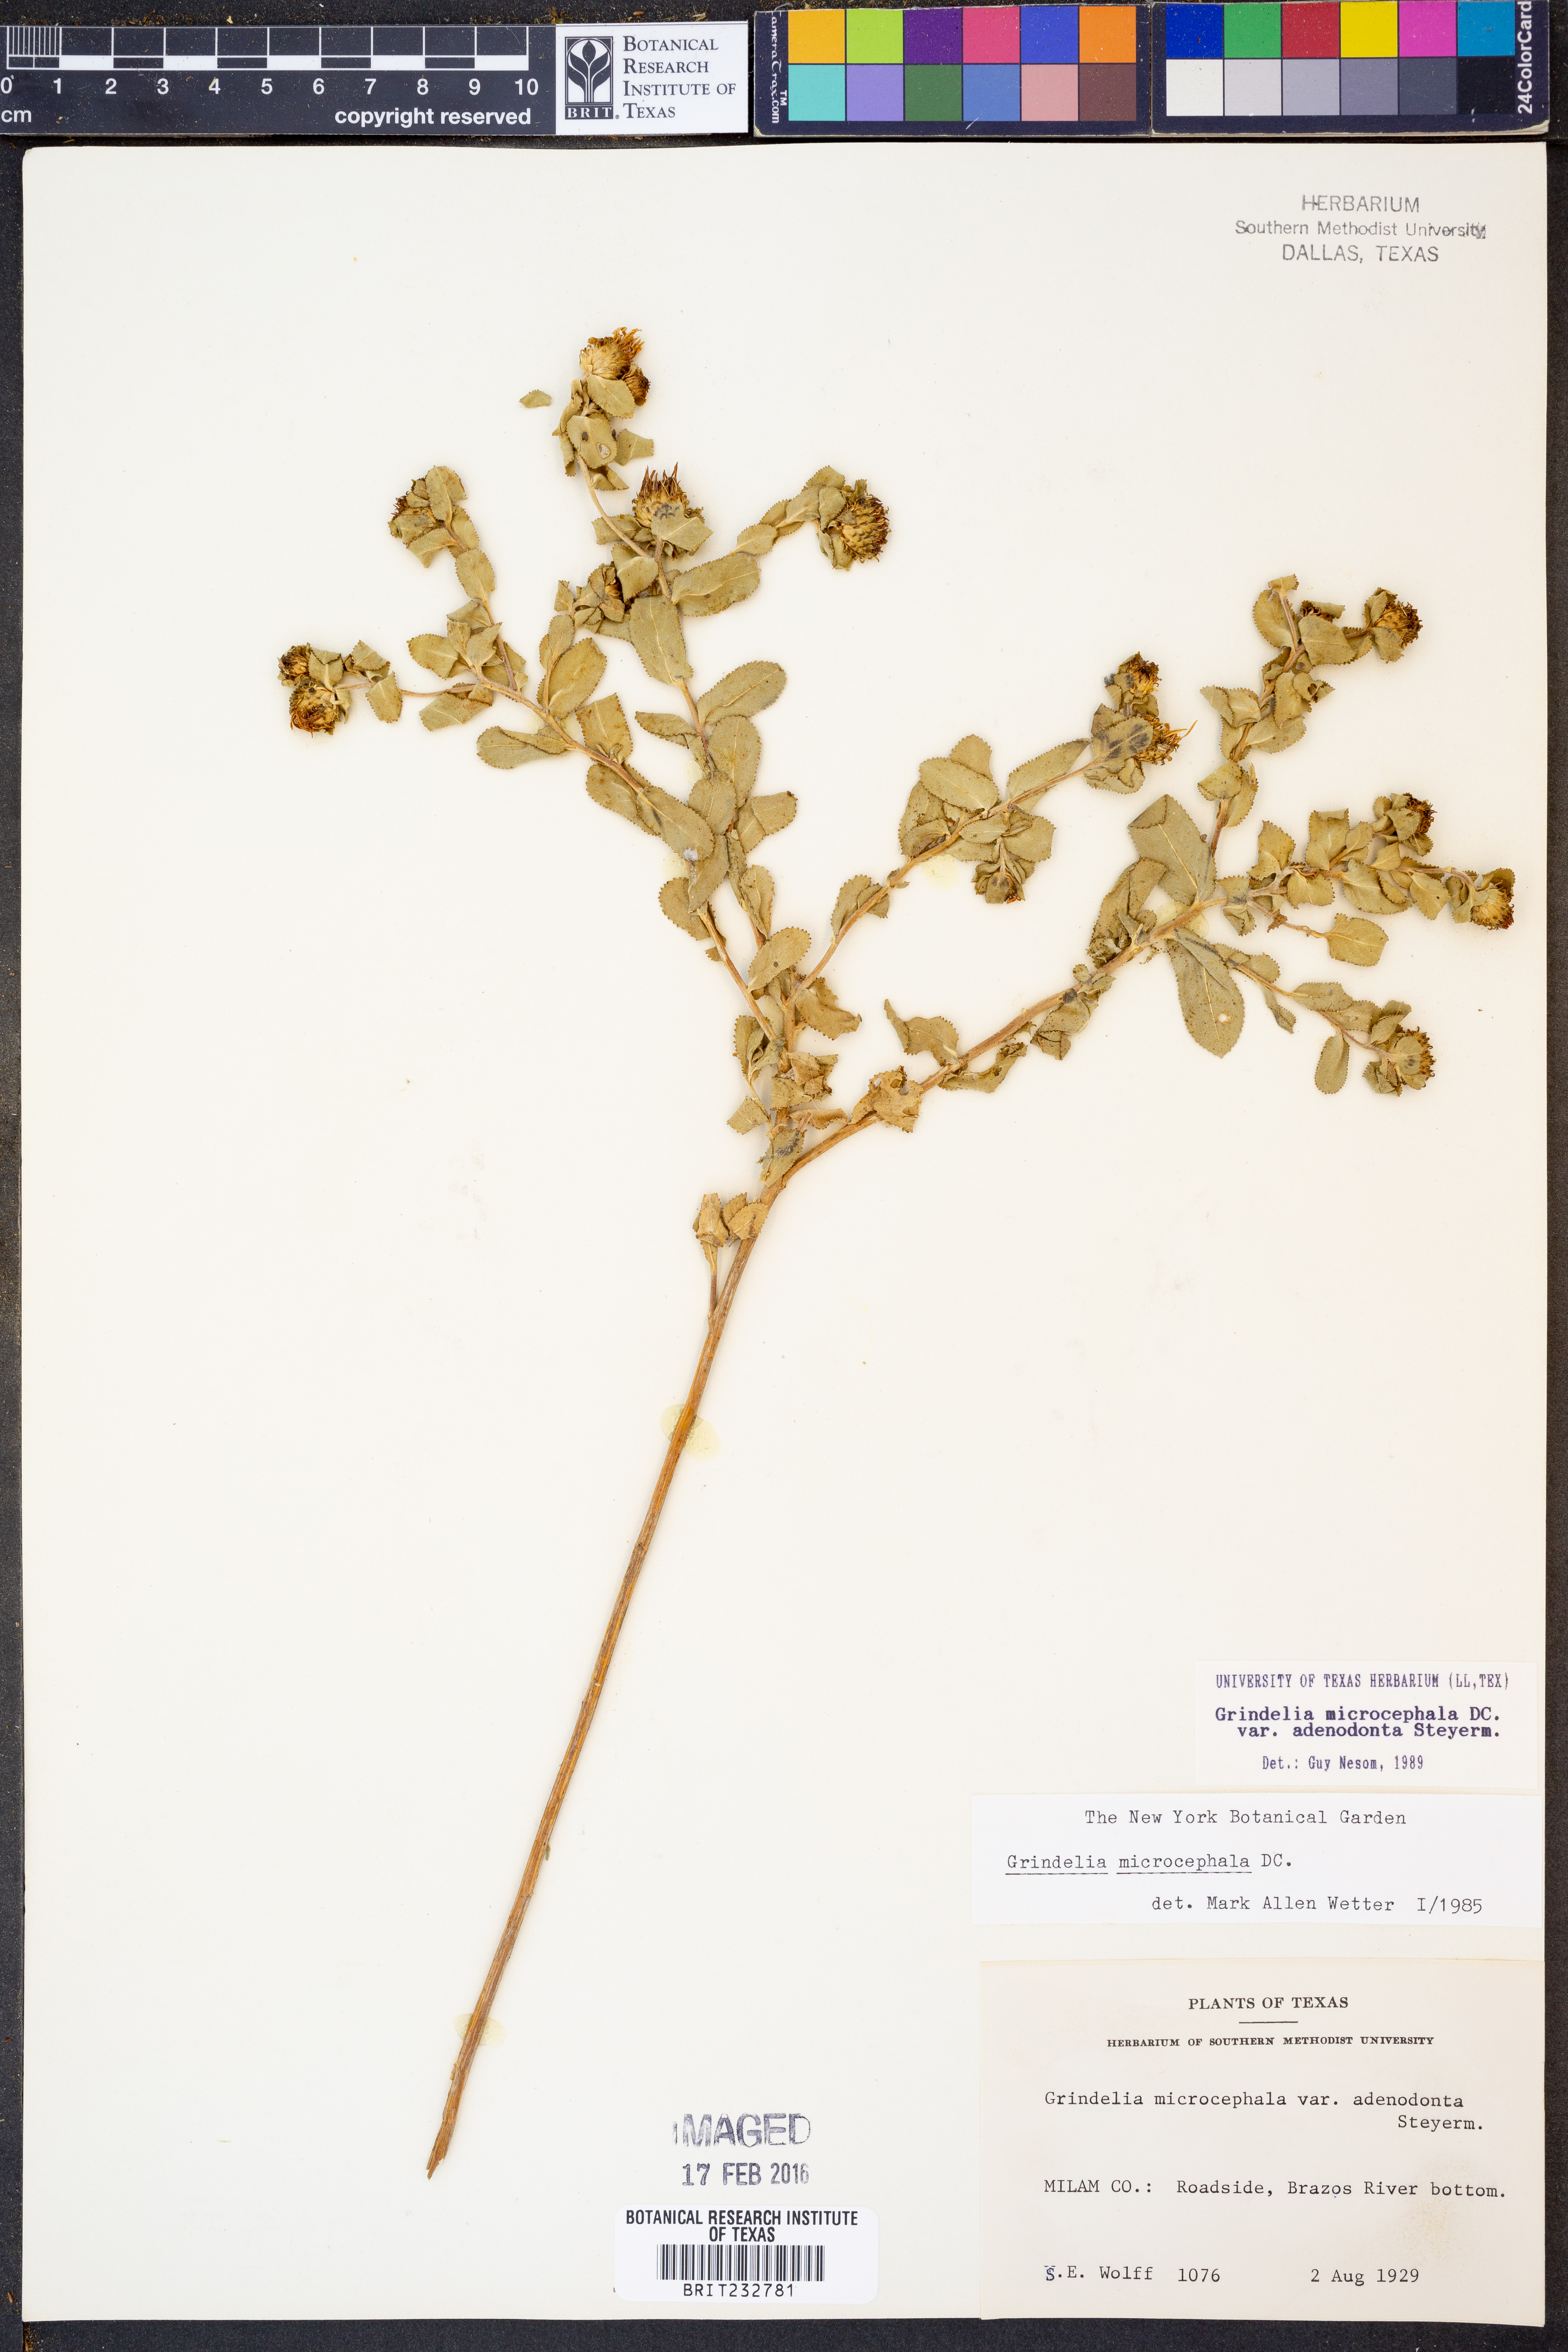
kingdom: Plantae
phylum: Tracheophyta
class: Magnoliopsida
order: Asterales
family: Asteraceae
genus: Grindelia
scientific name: Grindelia adenodonta
